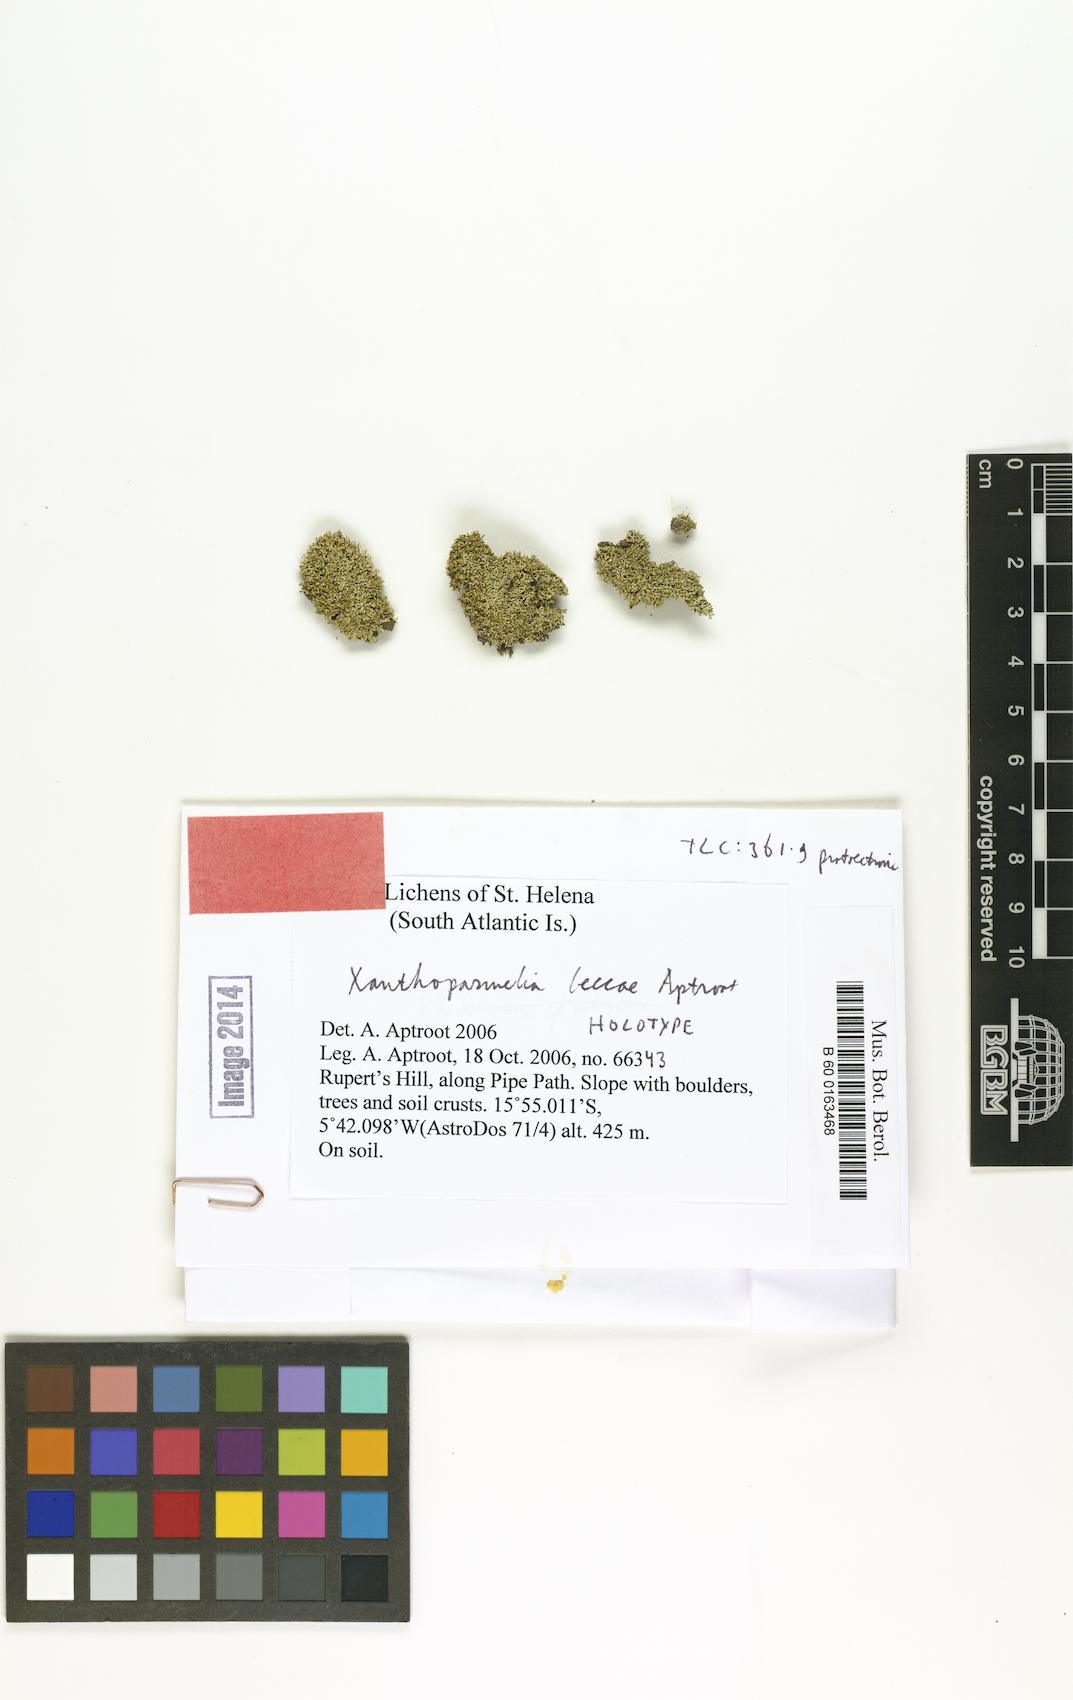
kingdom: Fungi
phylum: Ascomycota
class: Lecanoromycetes
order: Lecanorales
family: Parmeliaceae
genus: Xanthoparmelia
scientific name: Xanthoparmelia beccae
